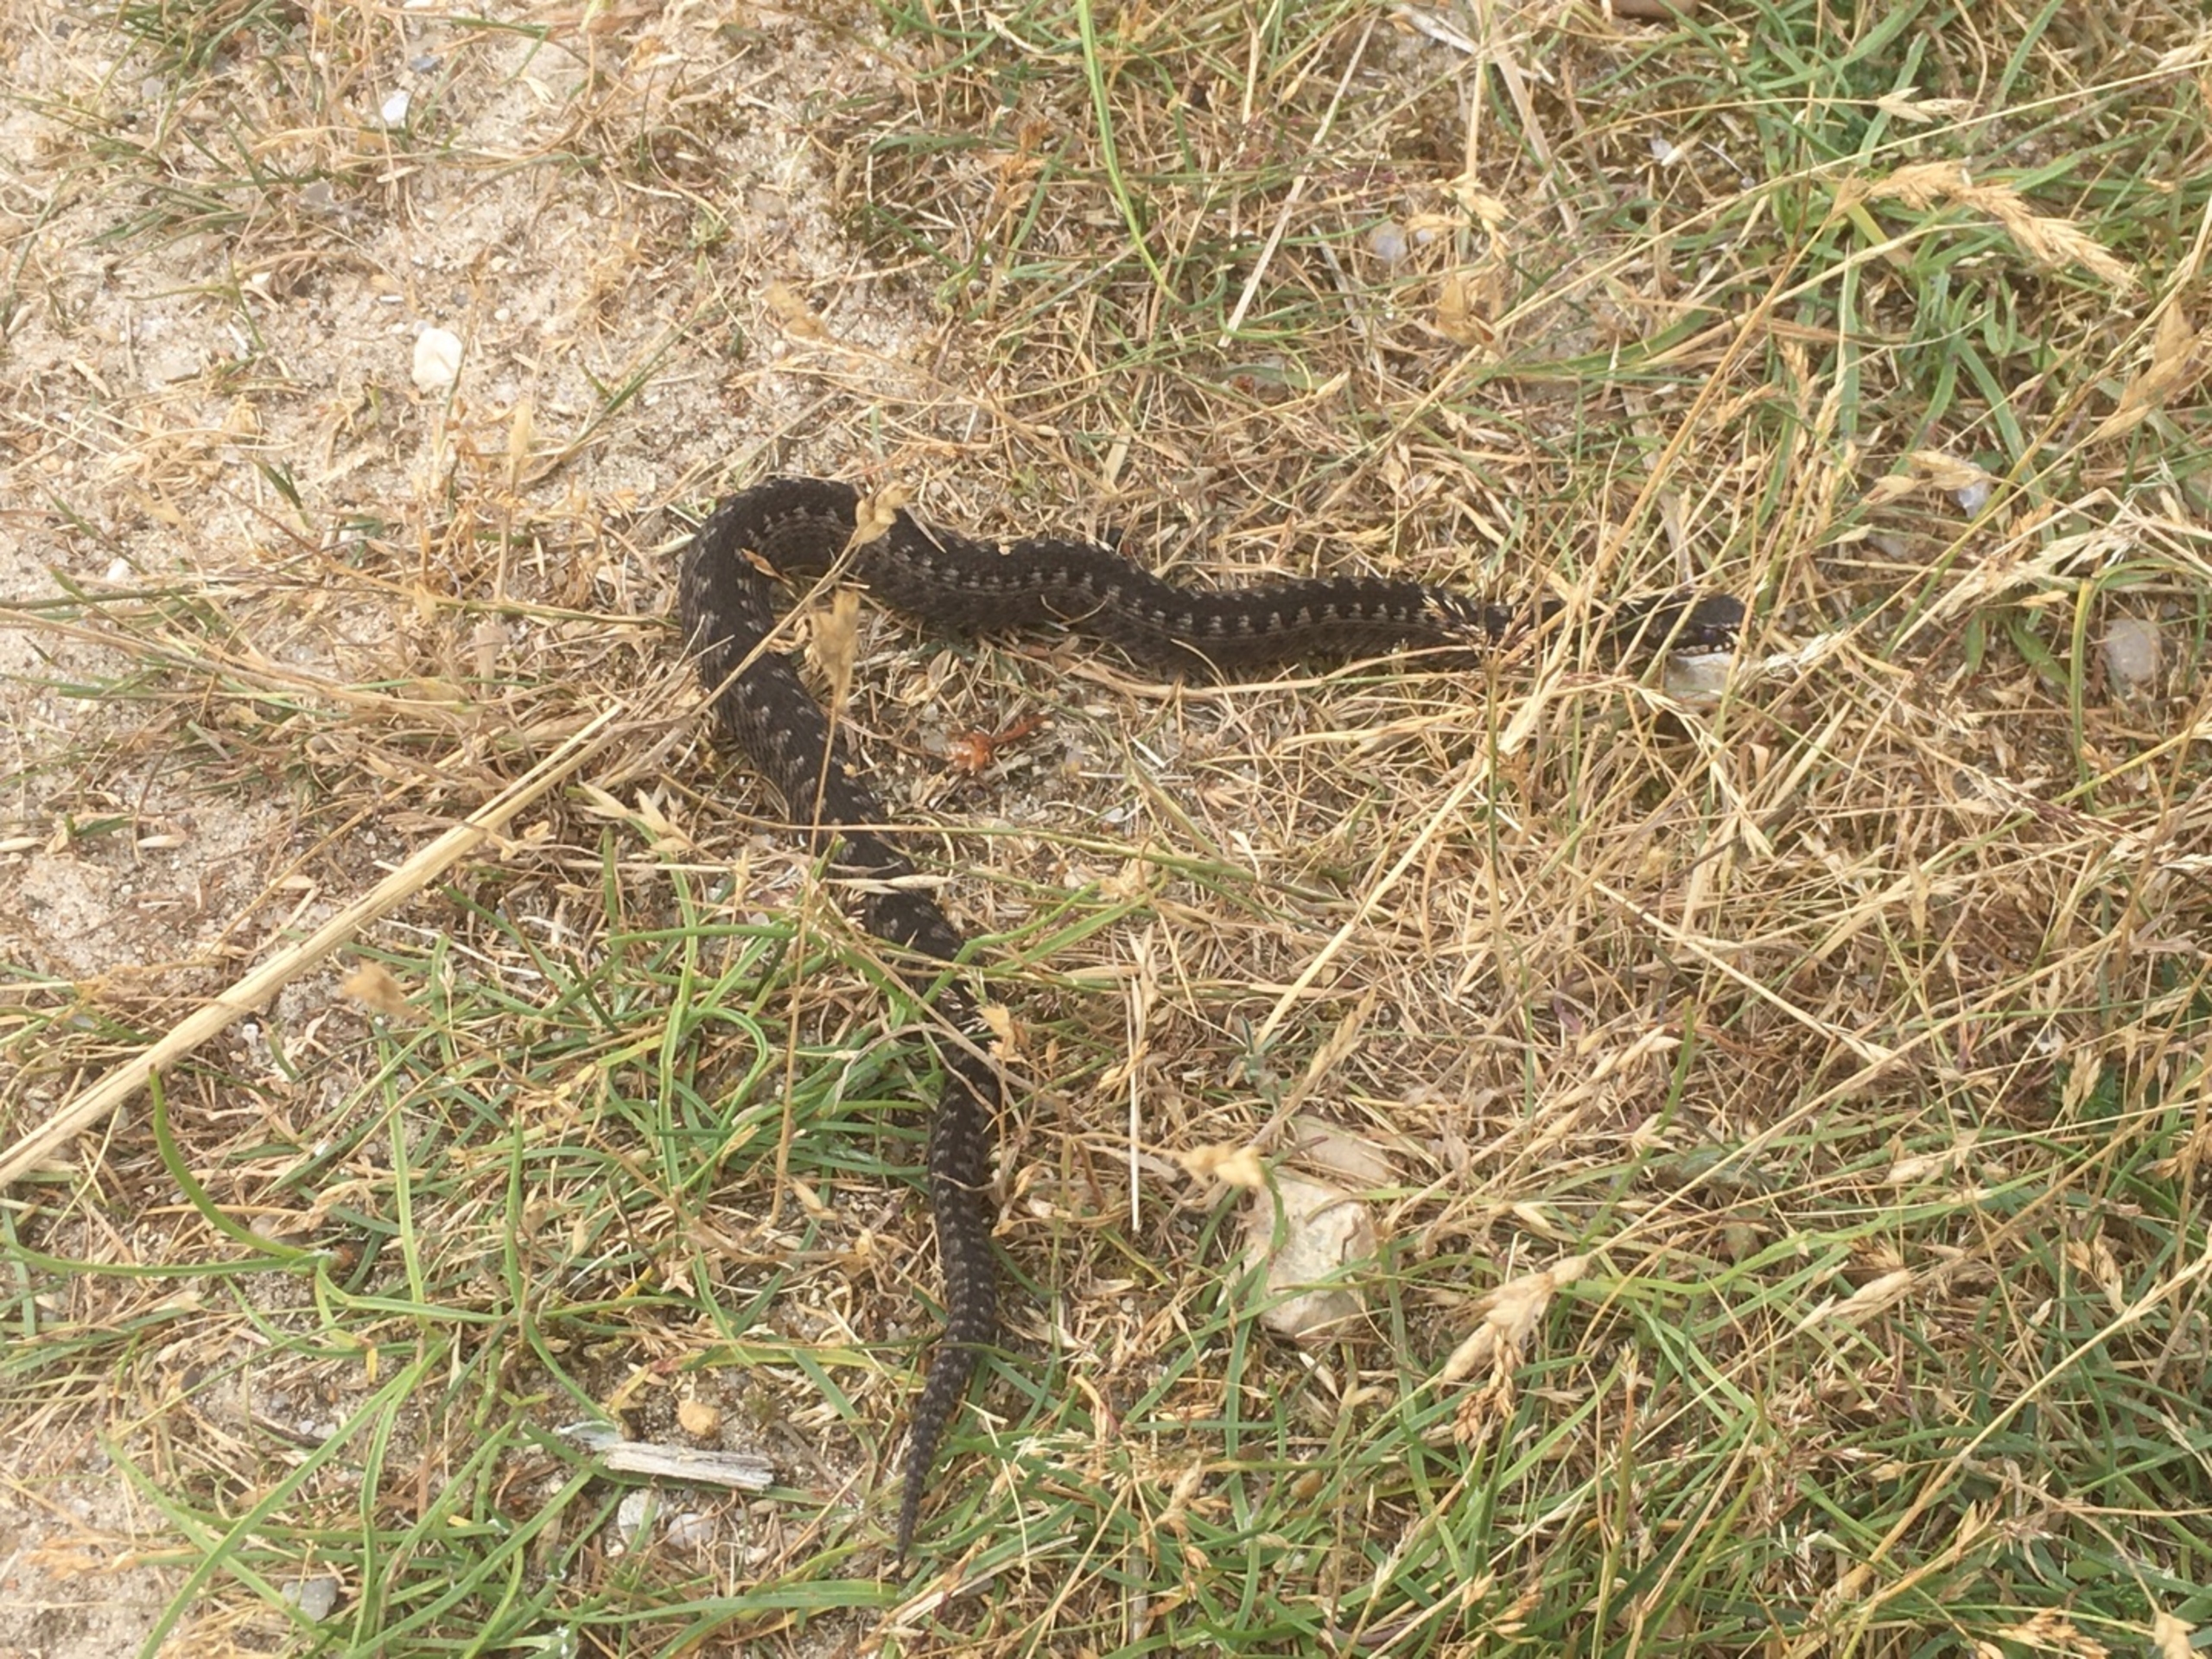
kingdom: Animalia
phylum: Chordata
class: Squamata
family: Viperidae
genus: Vipera
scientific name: Vipera berus
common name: Hugorm
